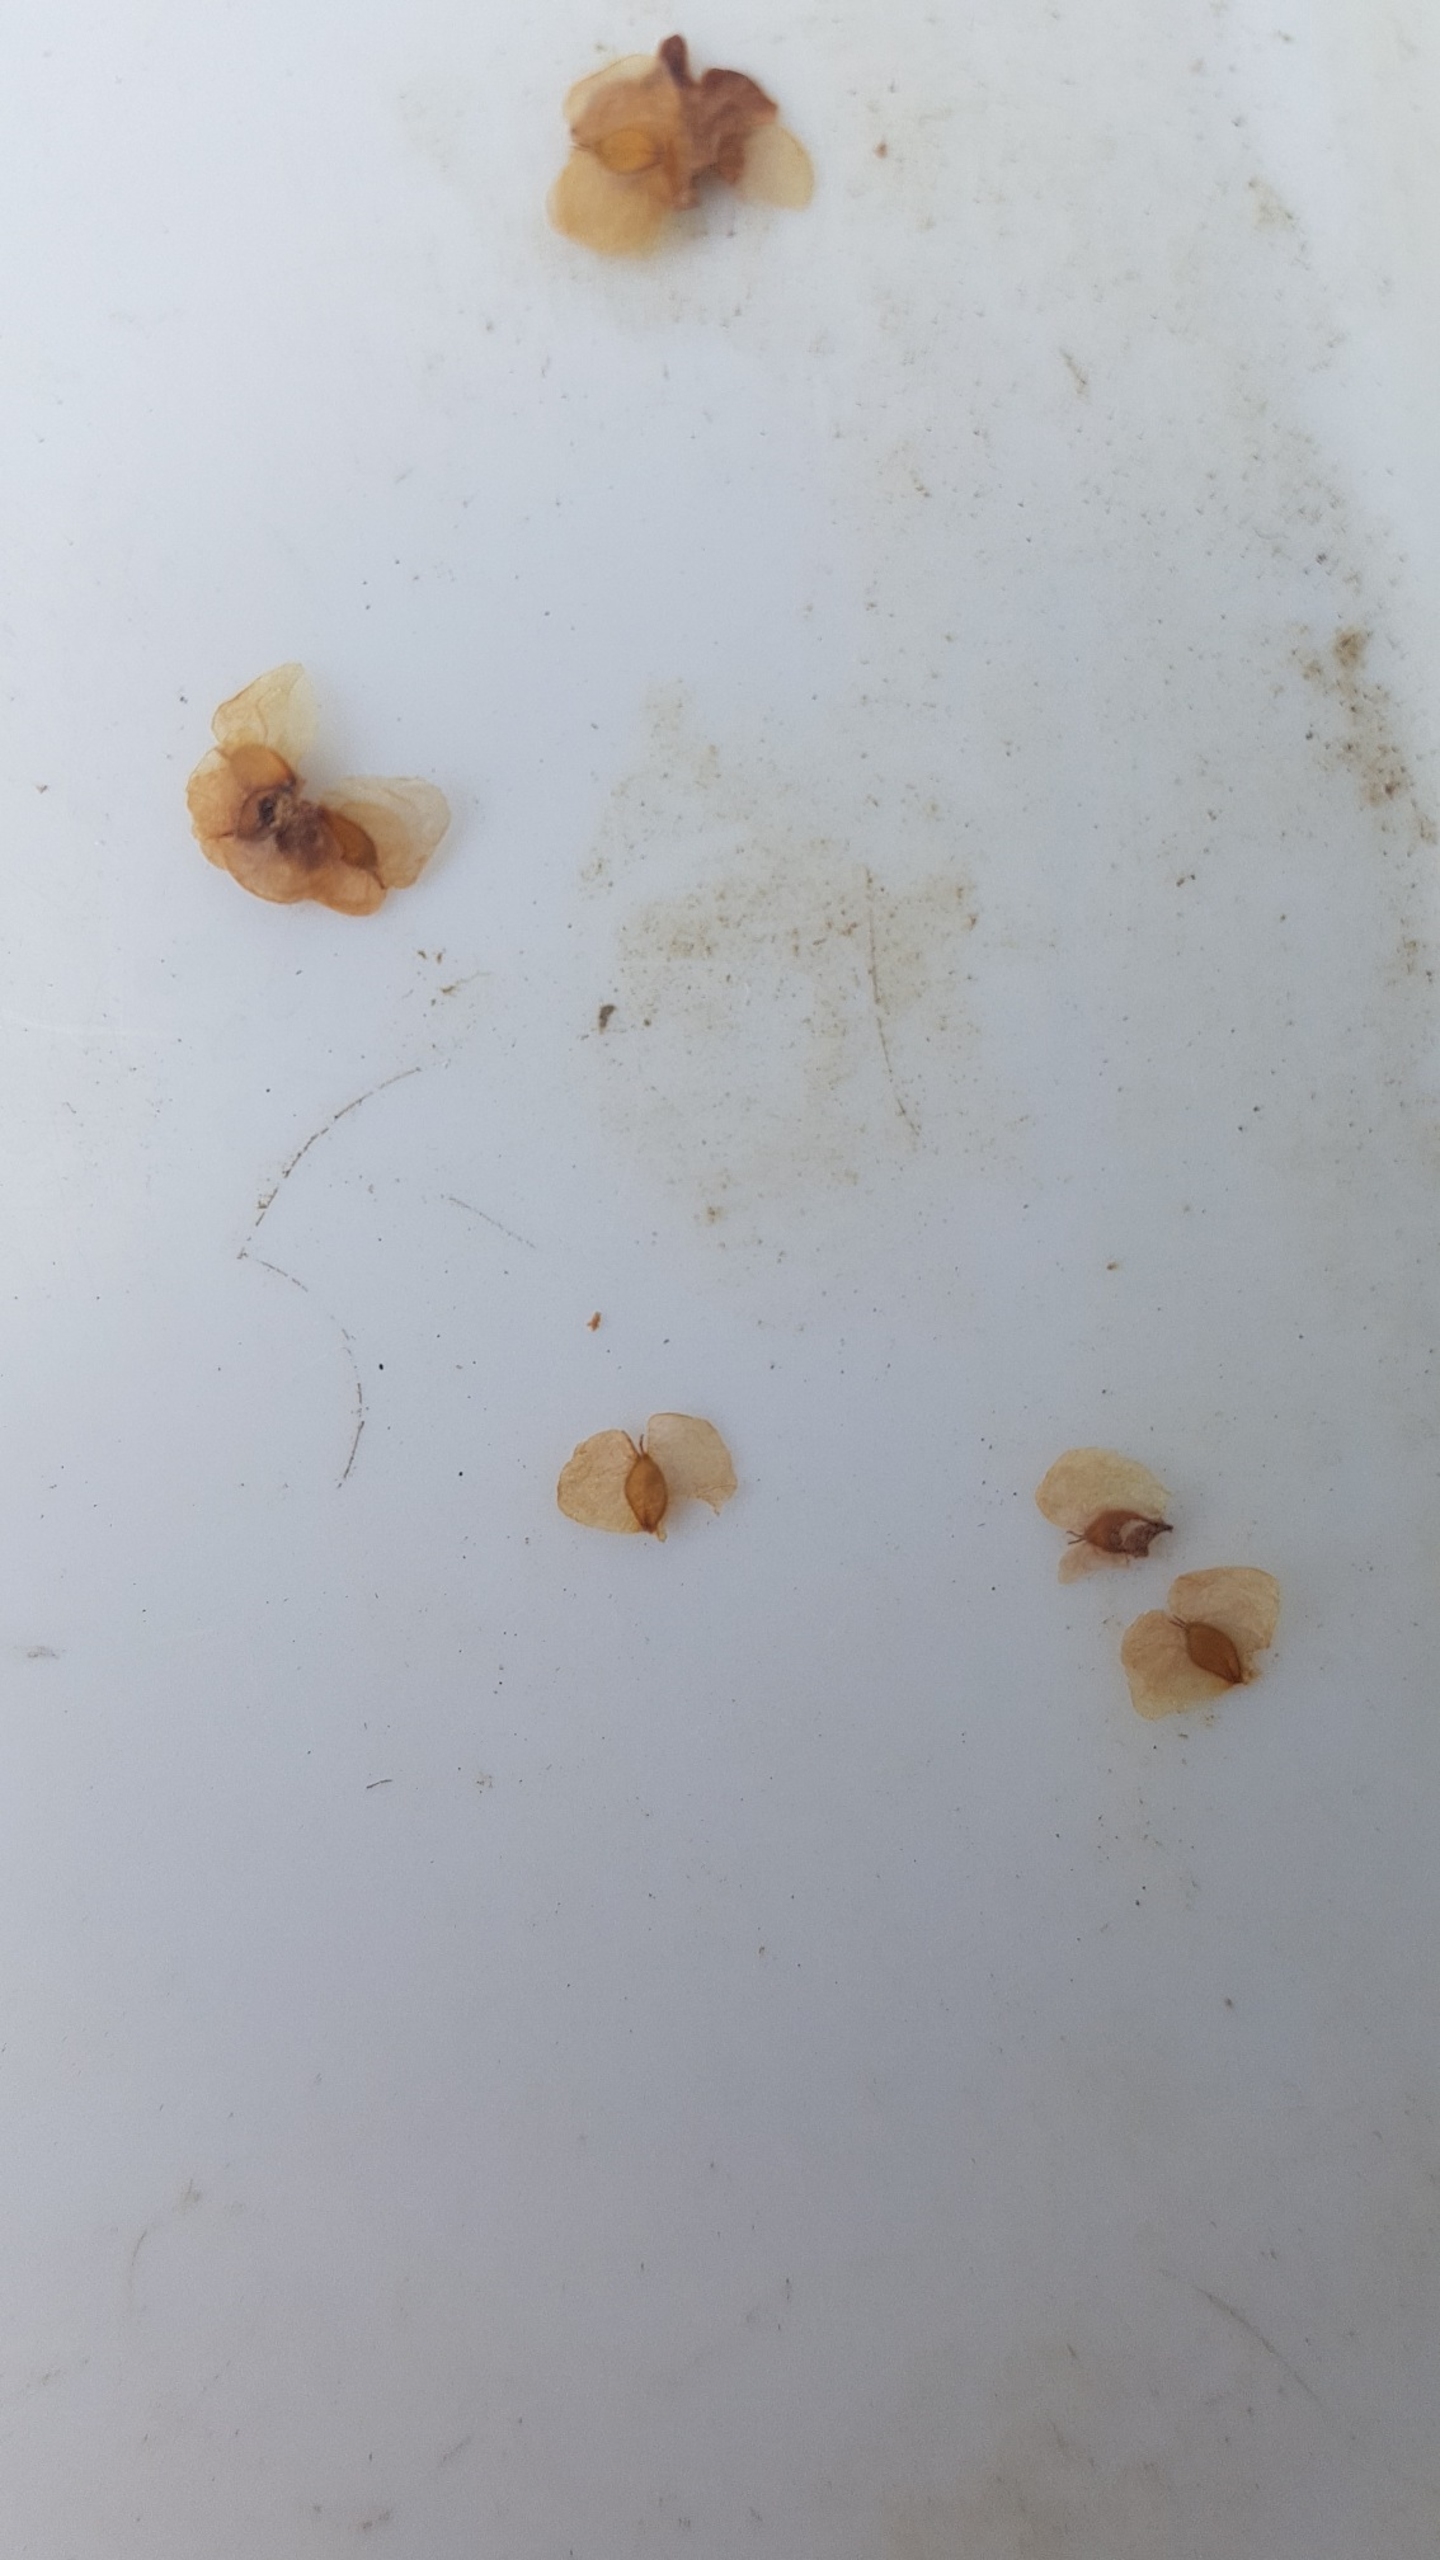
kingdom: Plantae
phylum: Tracheophyta
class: Magnoliopsida
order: Fagales
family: Betulaceae
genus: Betula
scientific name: Betula pendula
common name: Vorte-birk
